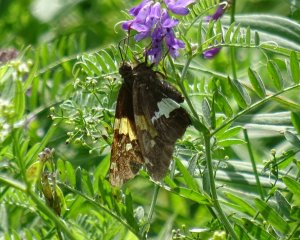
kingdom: Animalia
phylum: Arthropoda
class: Insecta
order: Lepidoptera
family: Hesperiidae
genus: Epargyreus
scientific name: Epargyreus clarus
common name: Silver-spotted Skipper
